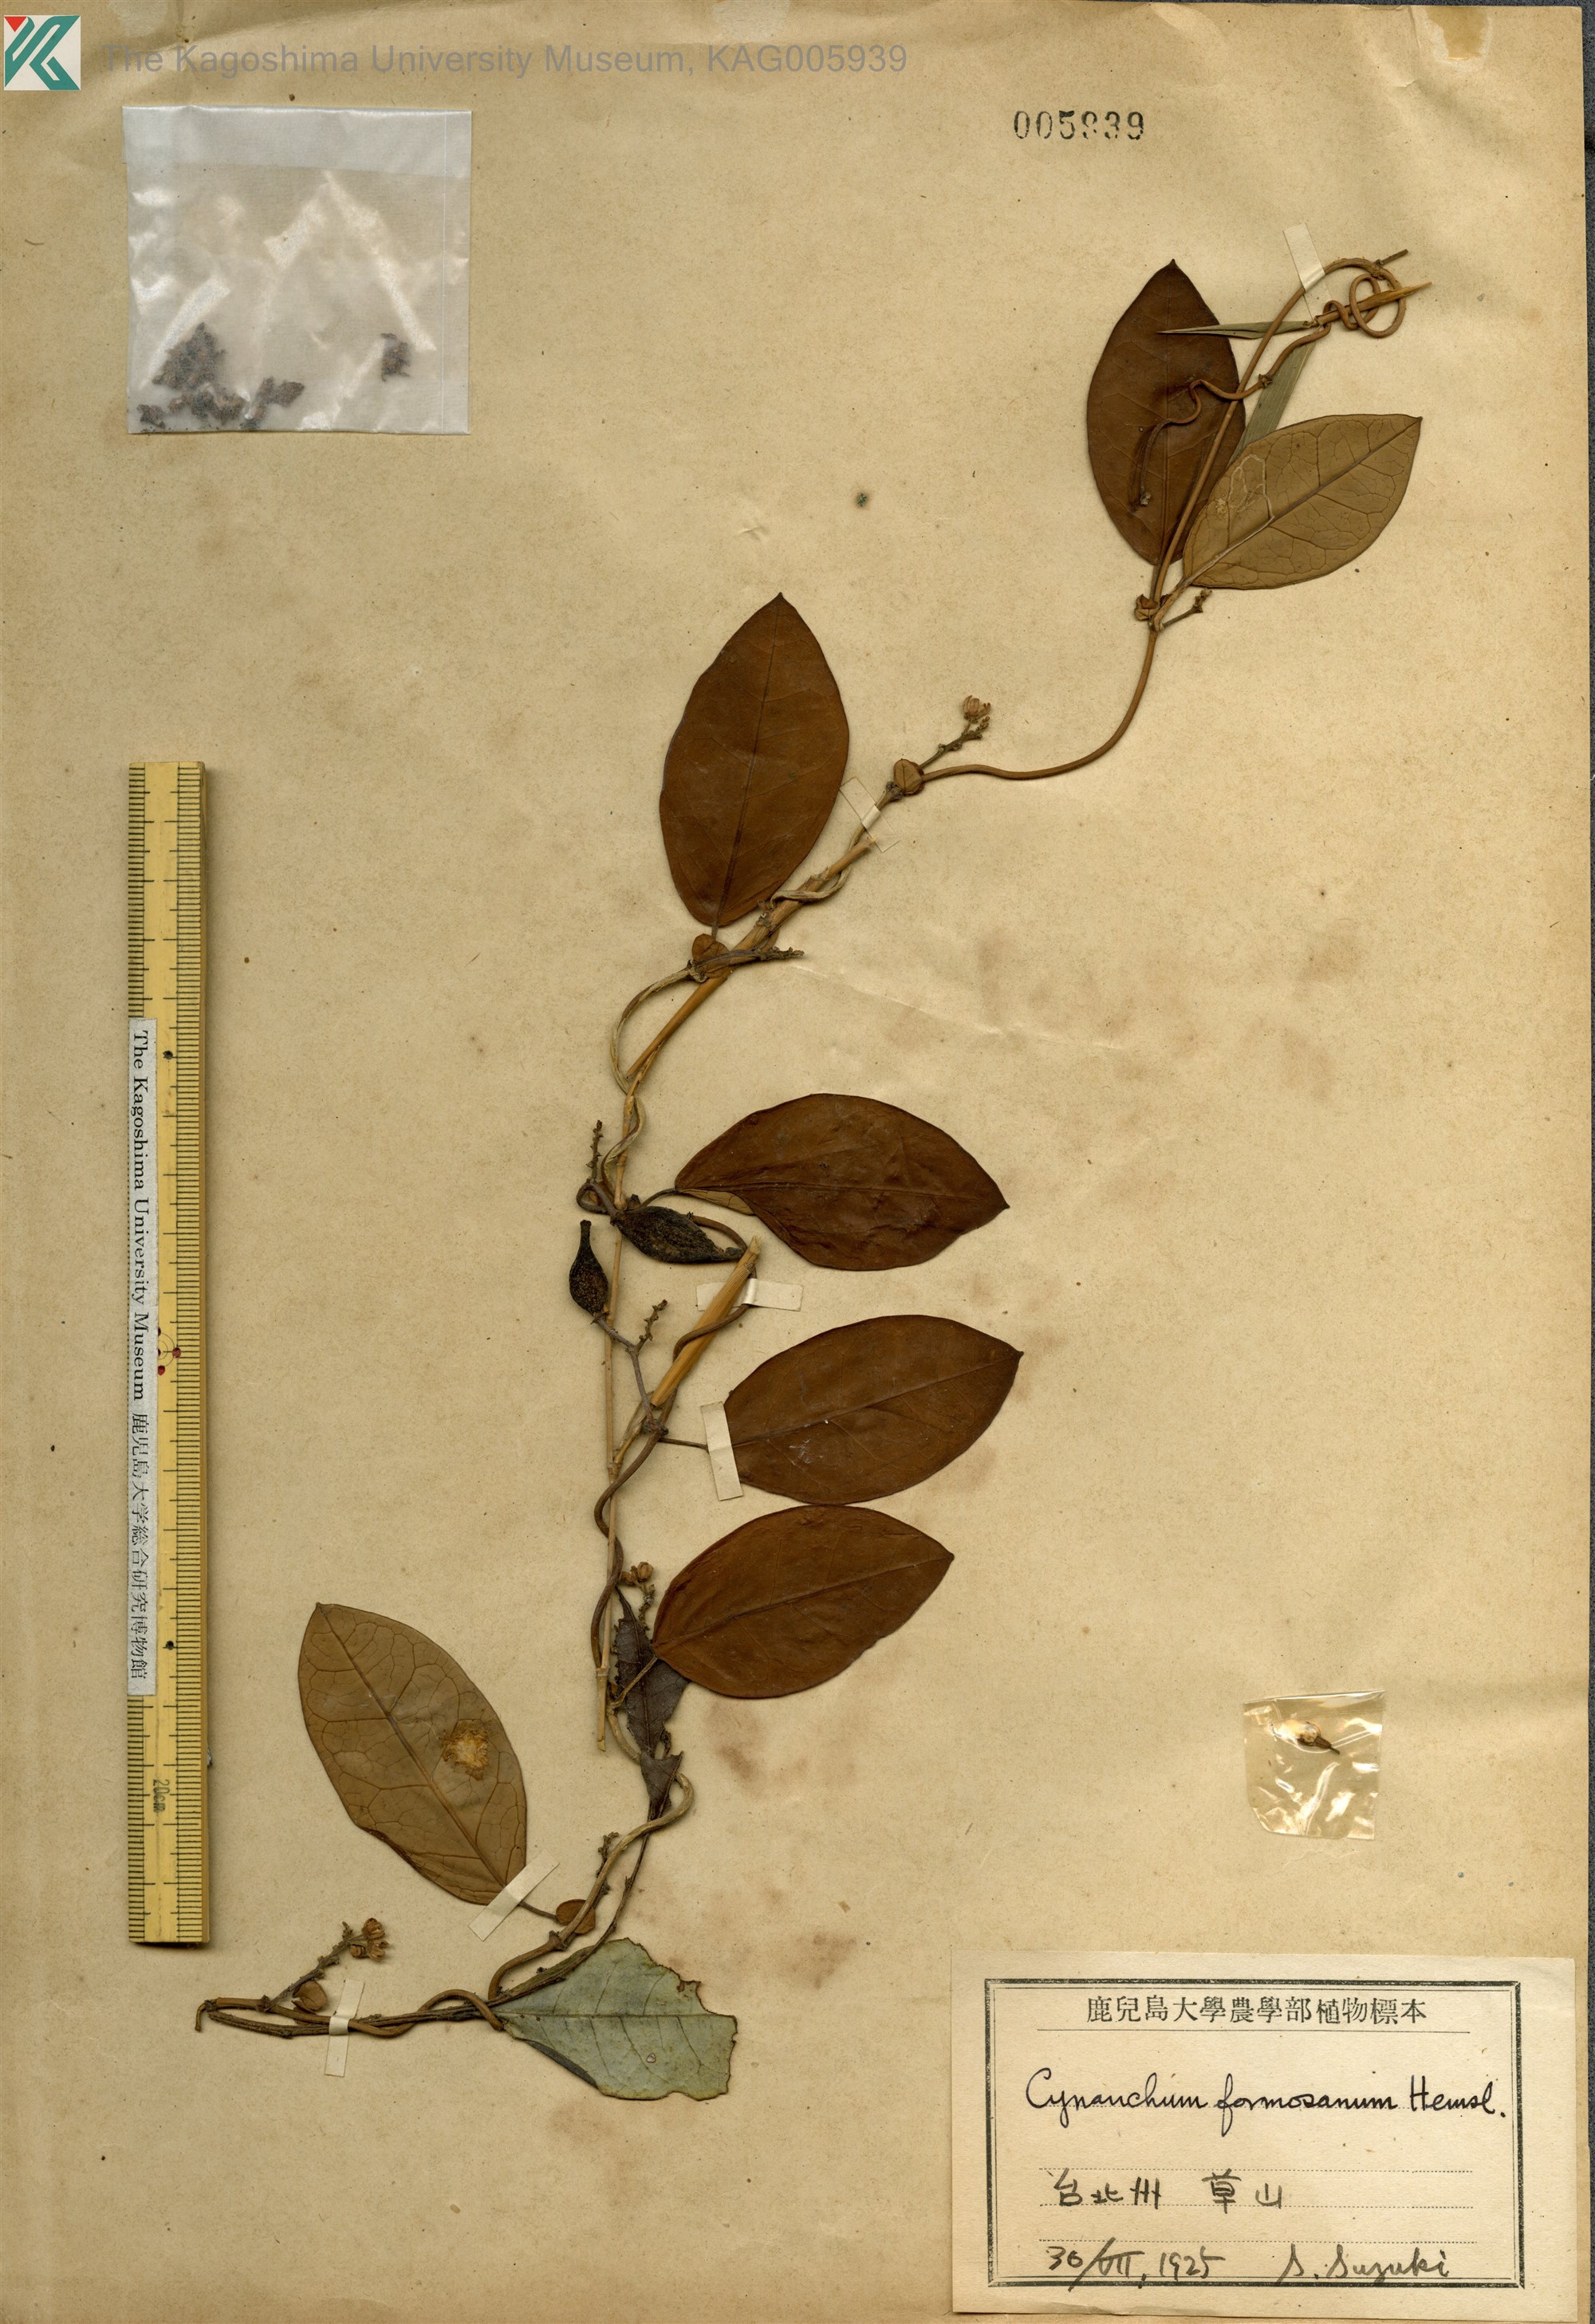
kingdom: Plantae
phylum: Tracheophyta
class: Magnoliopsida
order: Gentianales
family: Apocynaceae
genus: Cynanchum
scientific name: Cynanchum ovalifolium
